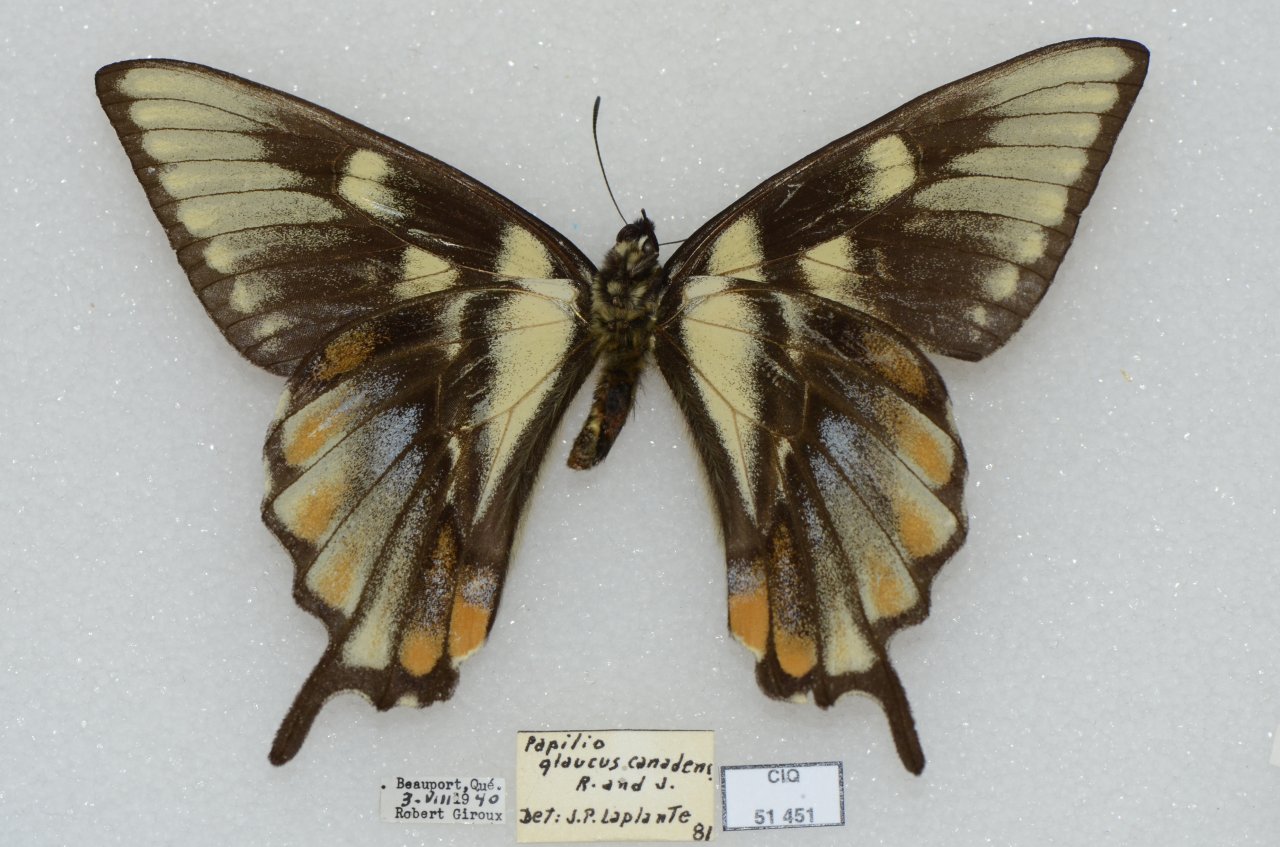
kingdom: Animalia
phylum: Arthropoda
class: Insecta
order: Lepidoptera
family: Papilionidae
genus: Pterourus
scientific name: Pterourus canadensis
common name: Canadian Tiger Swallowtail
